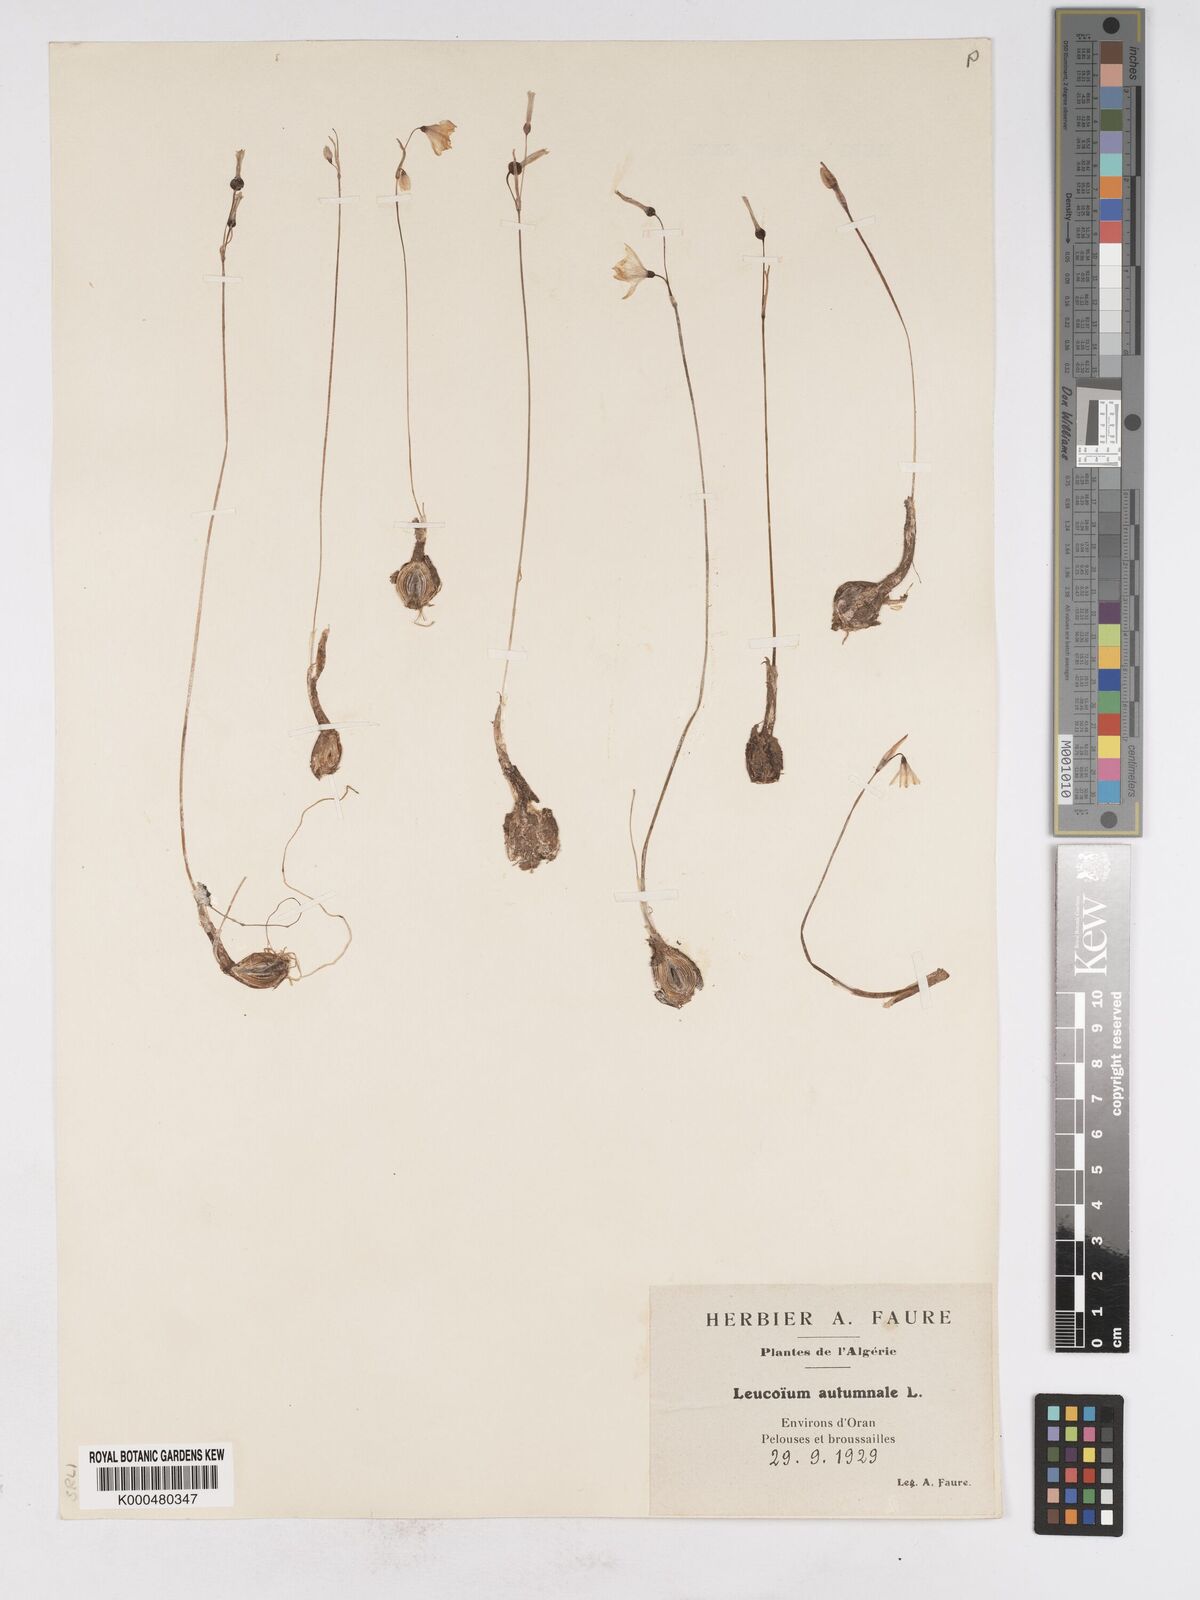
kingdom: Plantae
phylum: Tracheophyta
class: Liliopsida
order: Asparagales
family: Amaryllidaceae
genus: Acis
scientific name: Acis autumnalis
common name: Autumn snowflake
